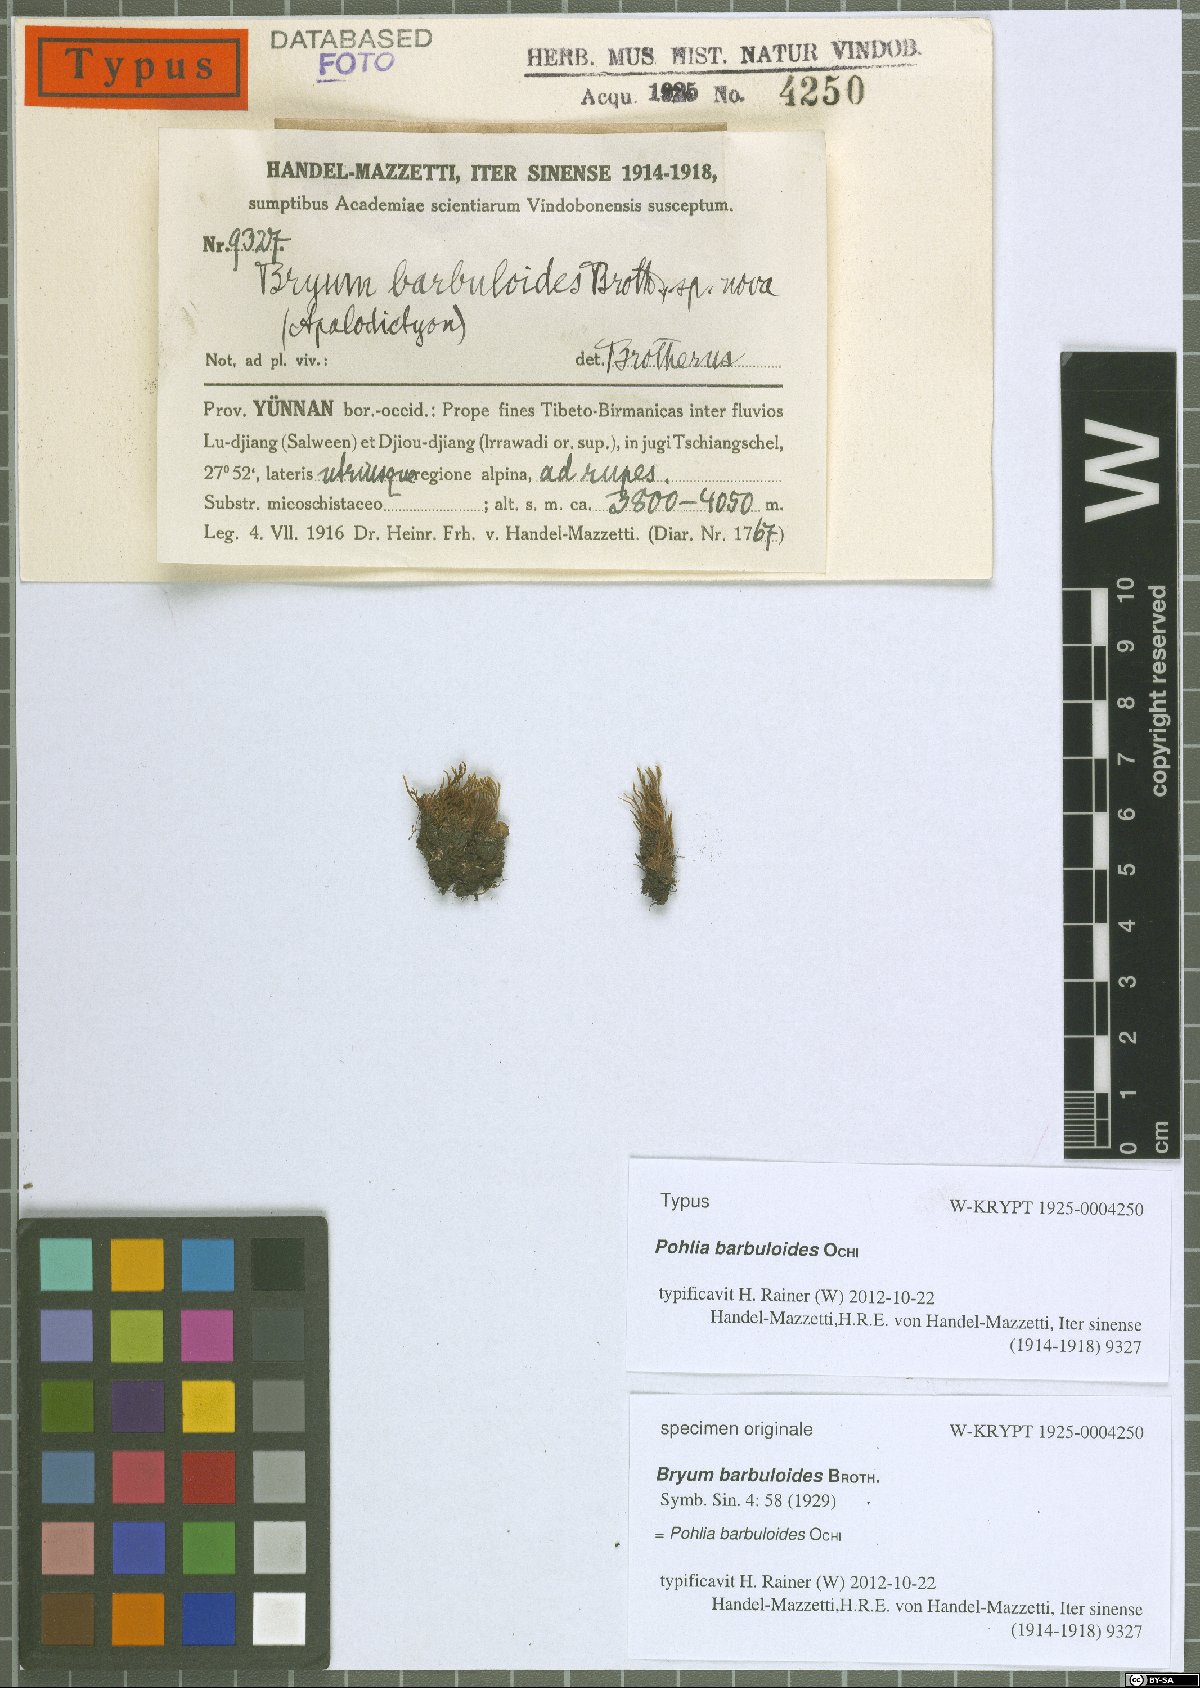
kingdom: Plantae
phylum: Bryophyta
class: Bryopsida
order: Bryales
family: Mniaceae
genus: Pohlia
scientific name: Pohlia barbuloides
